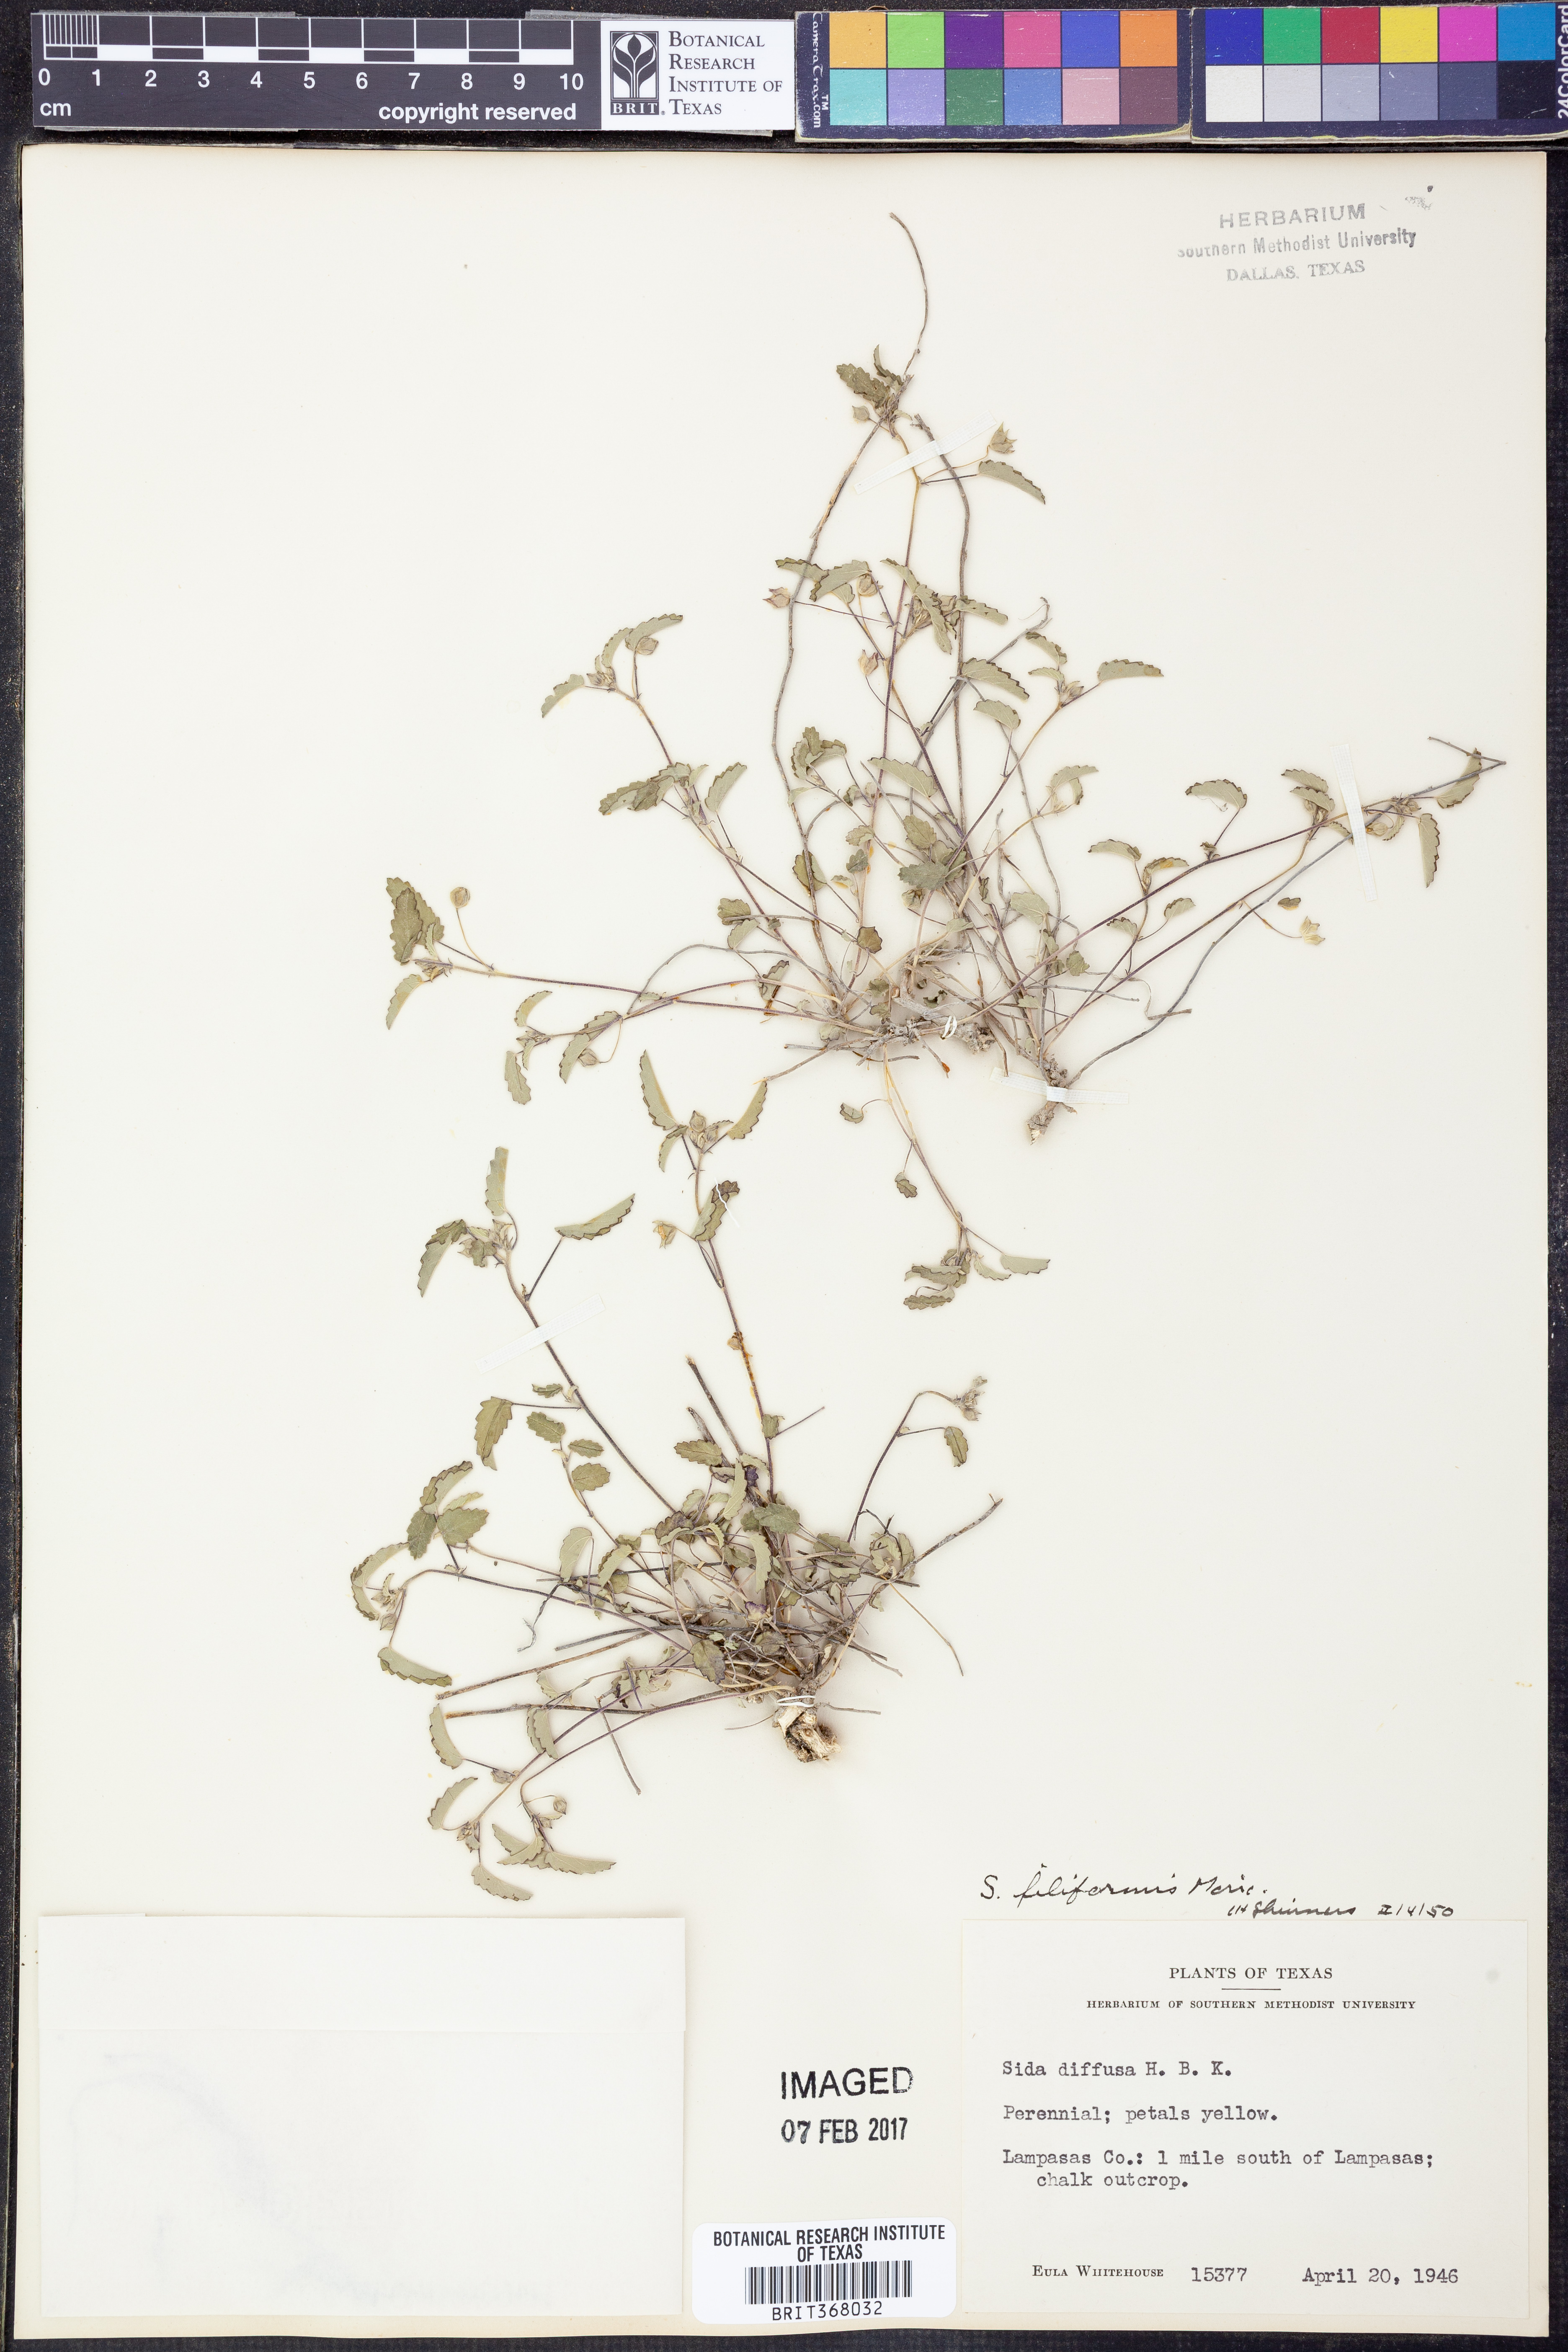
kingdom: Plantae
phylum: Tracheophyta
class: Magnoliopsida
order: Malvales
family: Malvaceae
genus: Sida
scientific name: Sida abutilifolia
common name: Spreading fanpetals
